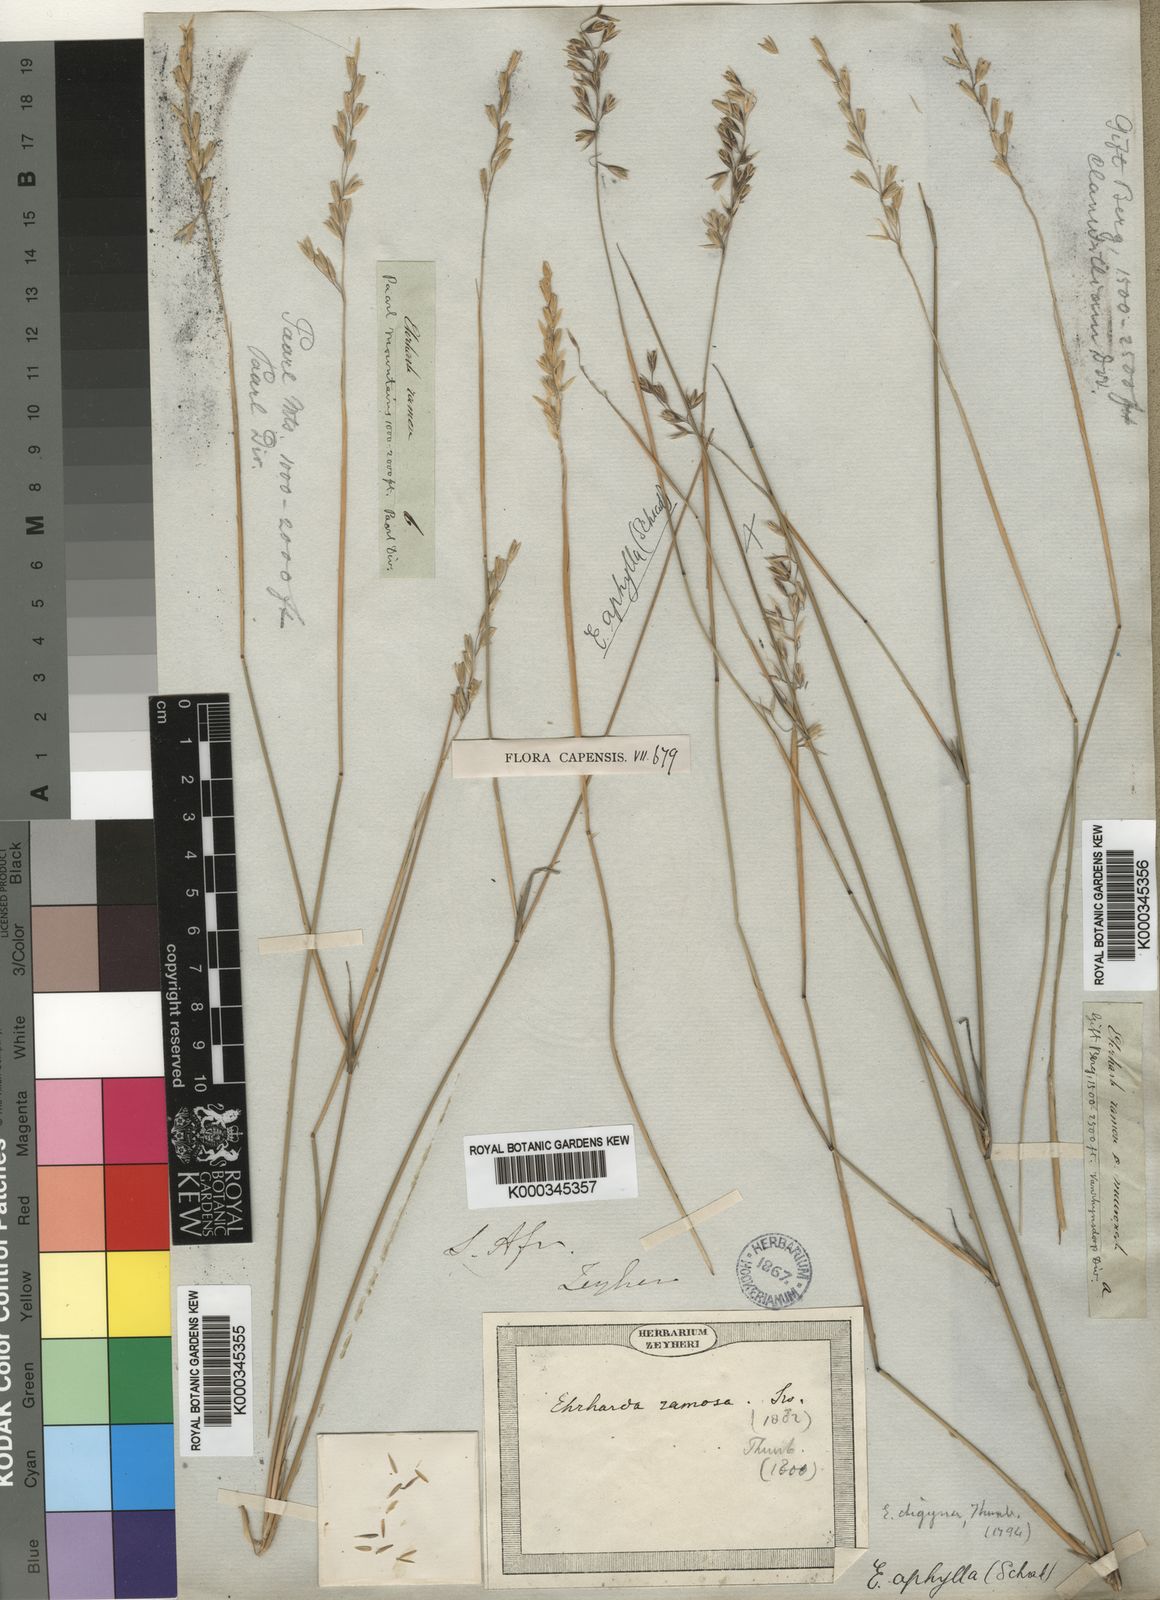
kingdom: Plantae
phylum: Tracheophyta
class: Liliopsida
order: Poales
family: Poaceae
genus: Ehrharta
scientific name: Ehrharta ramosa
